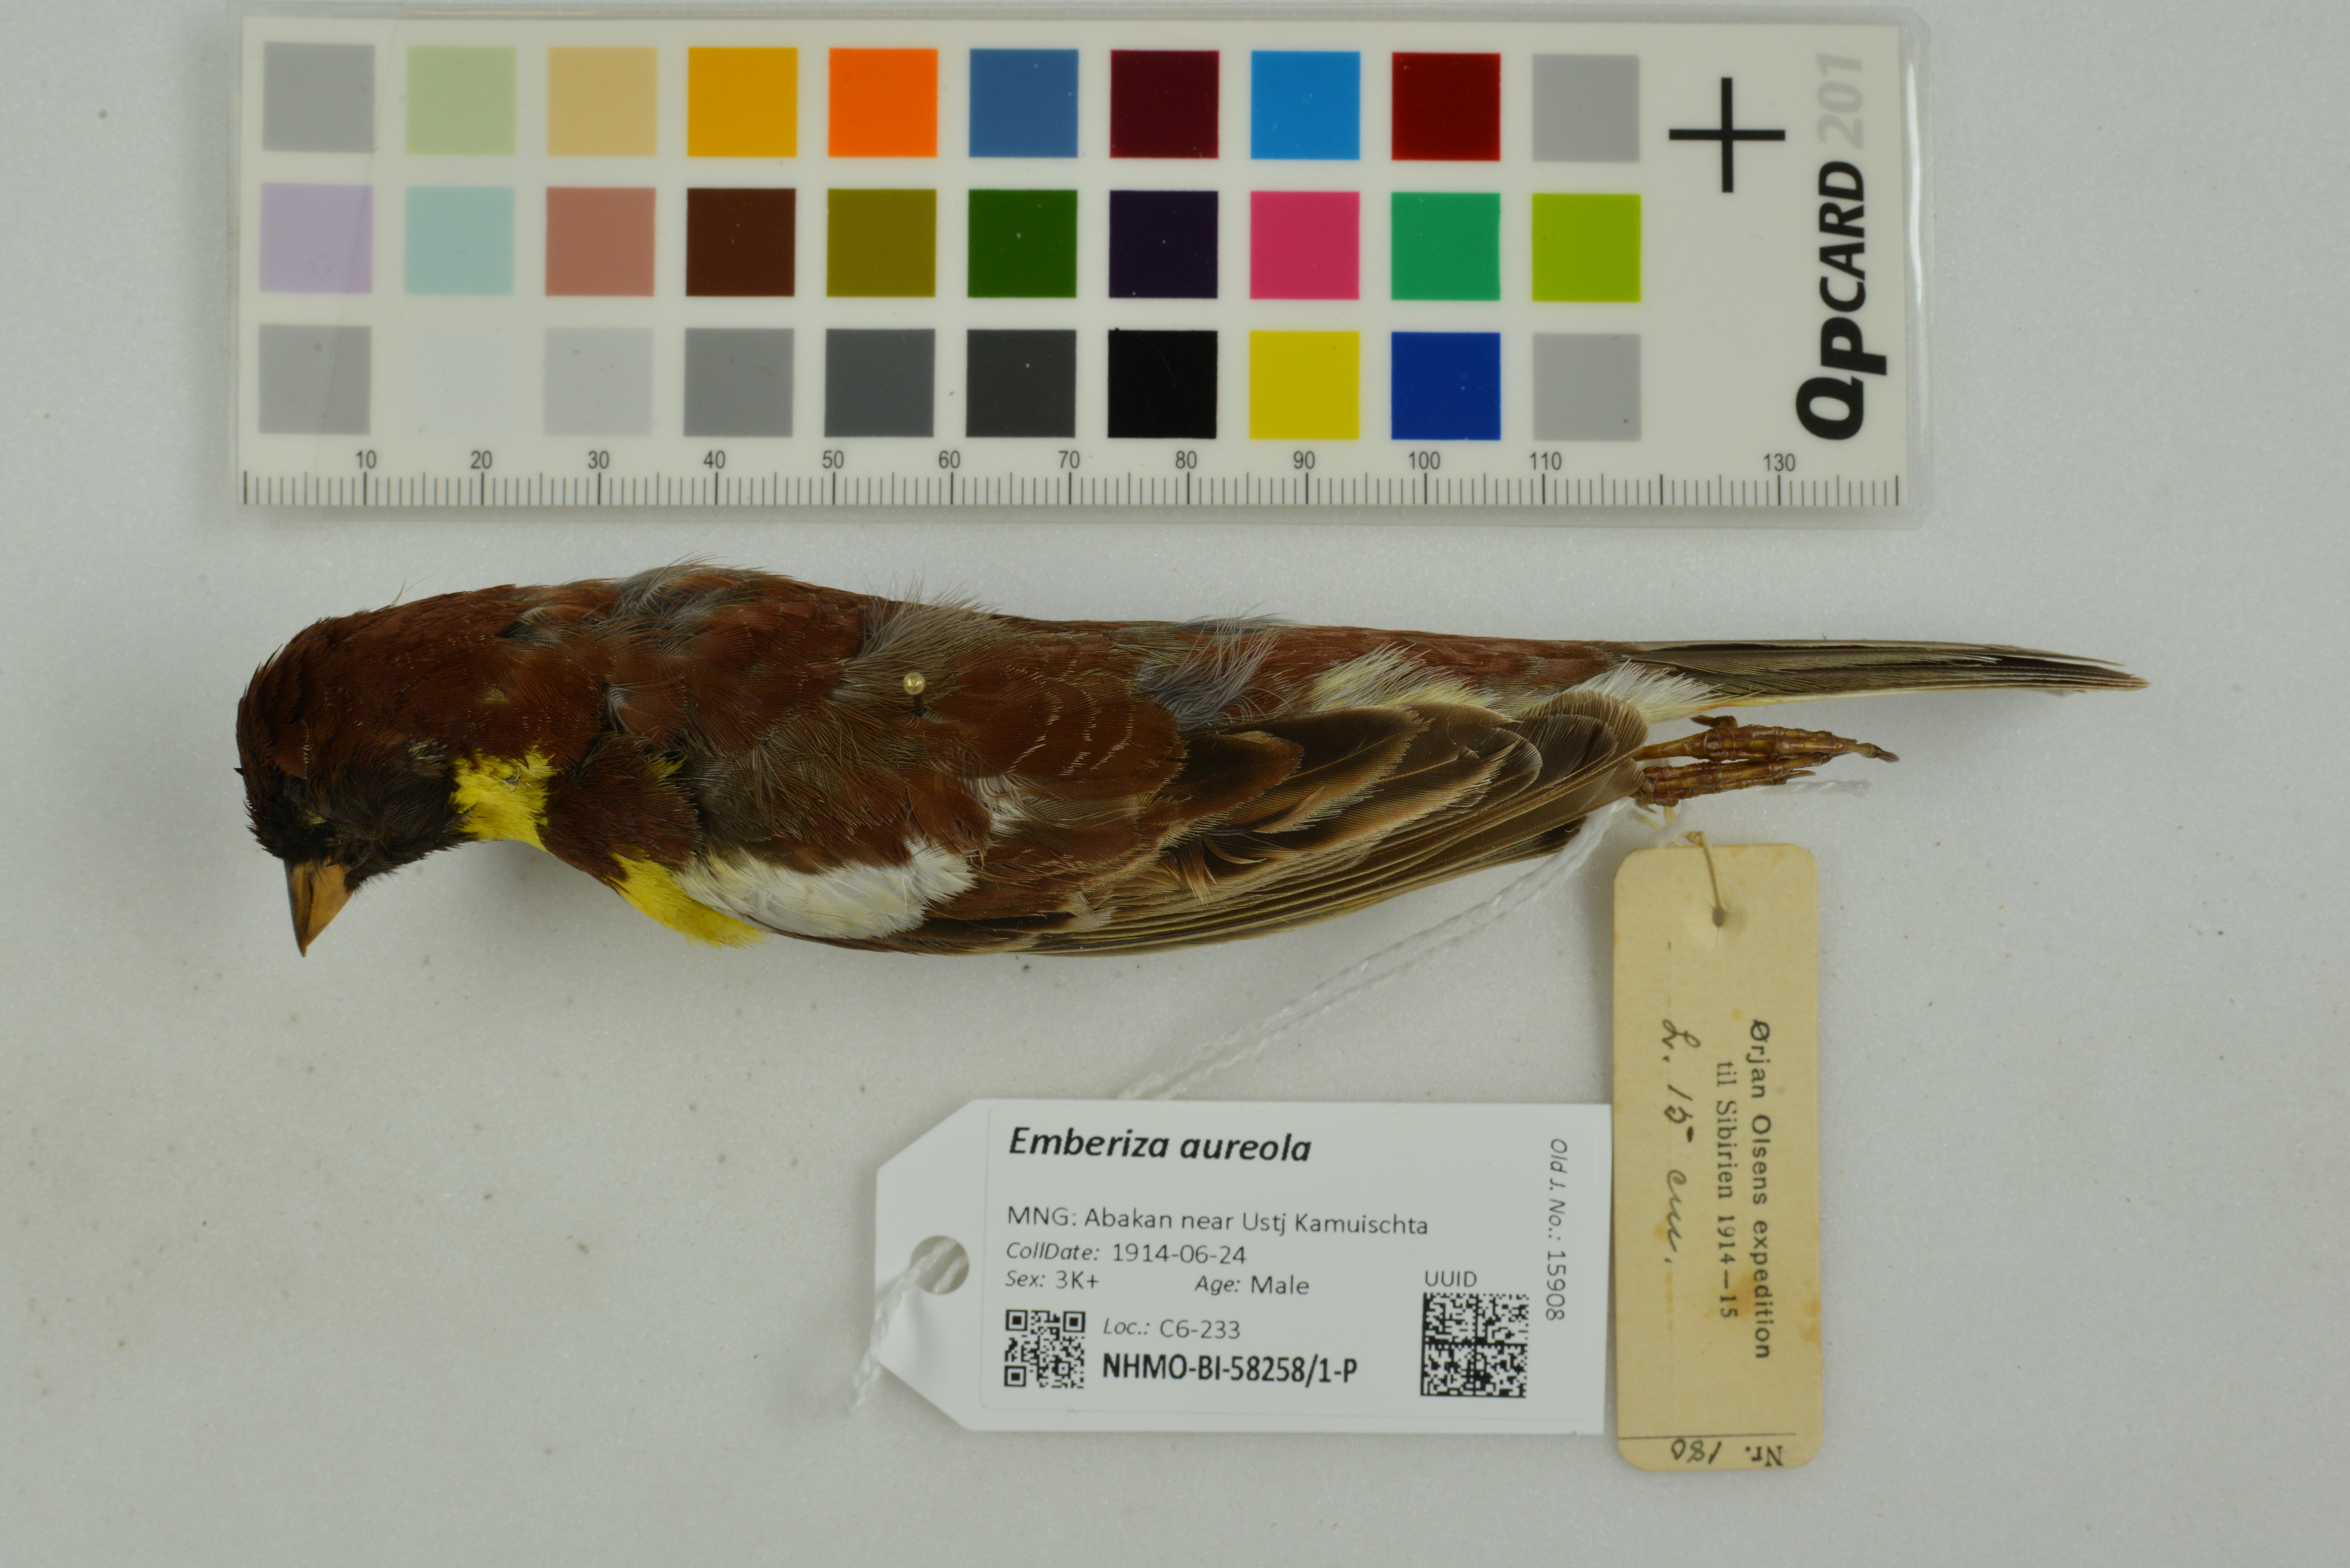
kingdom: Animalia
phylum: Chordata
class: Aves
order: Passeriformes
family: Emberizidae
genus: Emberiza
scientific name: Emberiza aureola
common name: Yellow-breasted bunting
